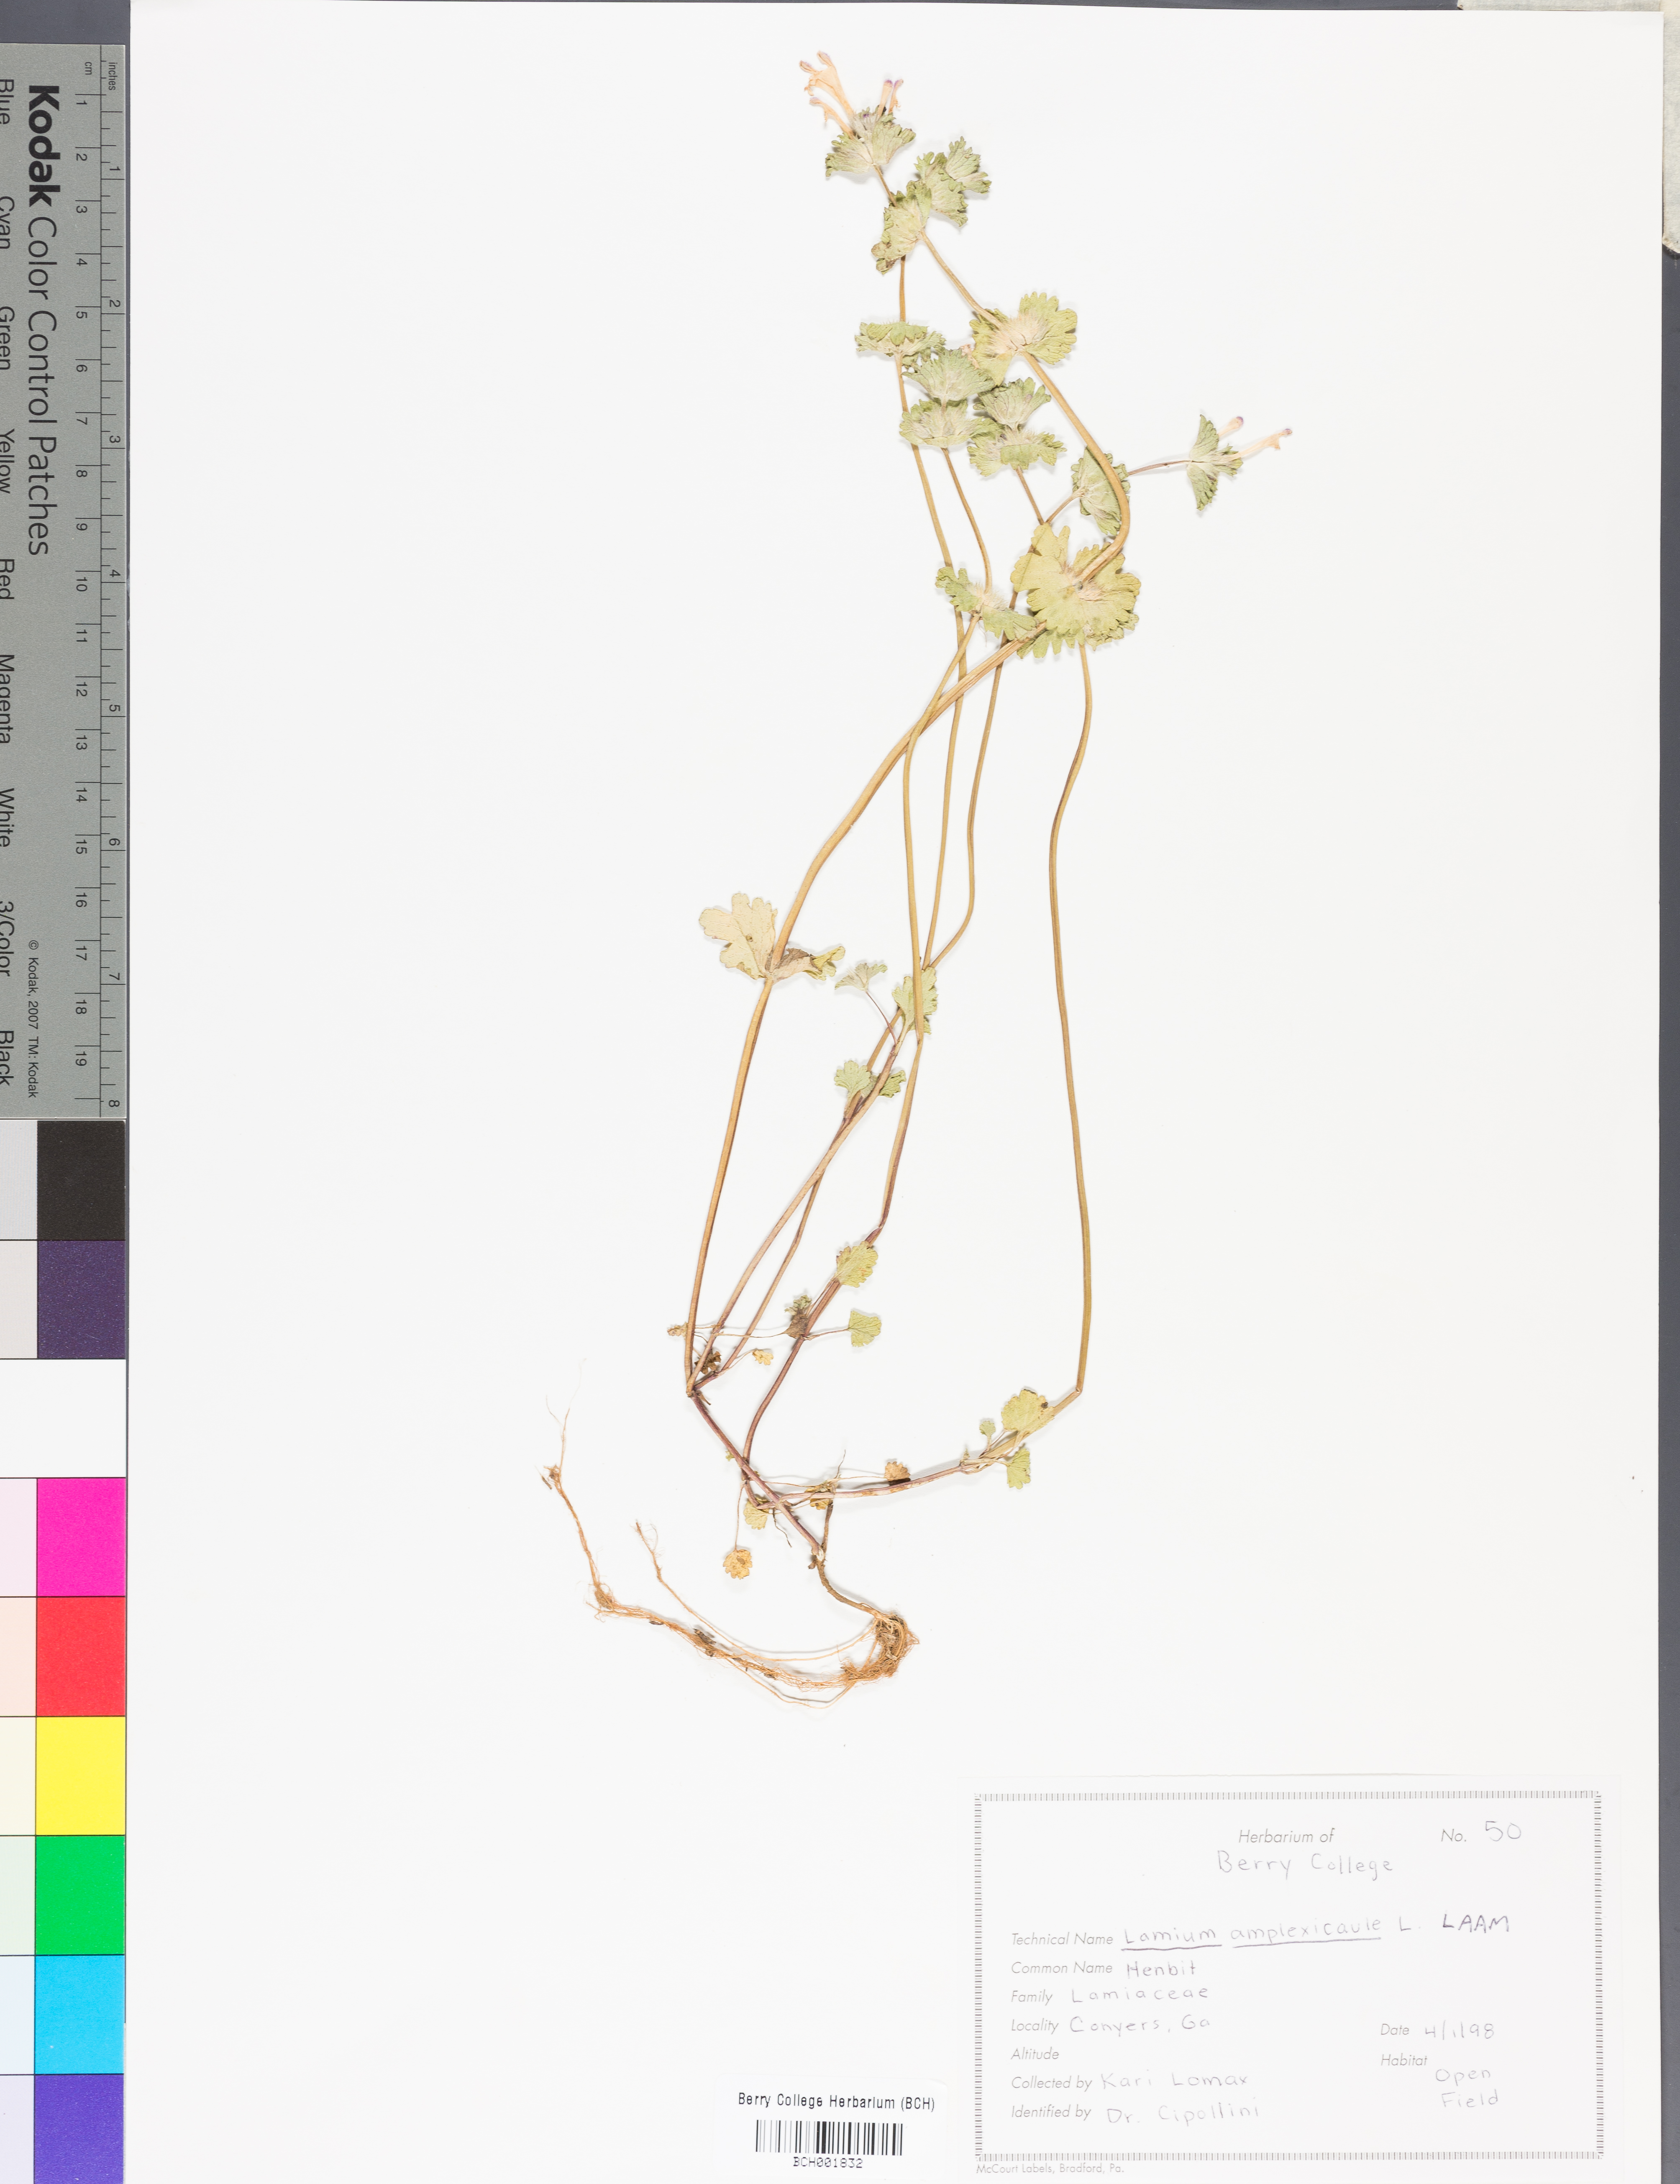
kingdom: Plantae
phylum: Tracheophyta
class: Magnoliopsida
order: Lamiales
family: Lamiaceae
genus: Lamium
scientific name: Lamium amplexicaule
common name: Henbit dead-nettle
